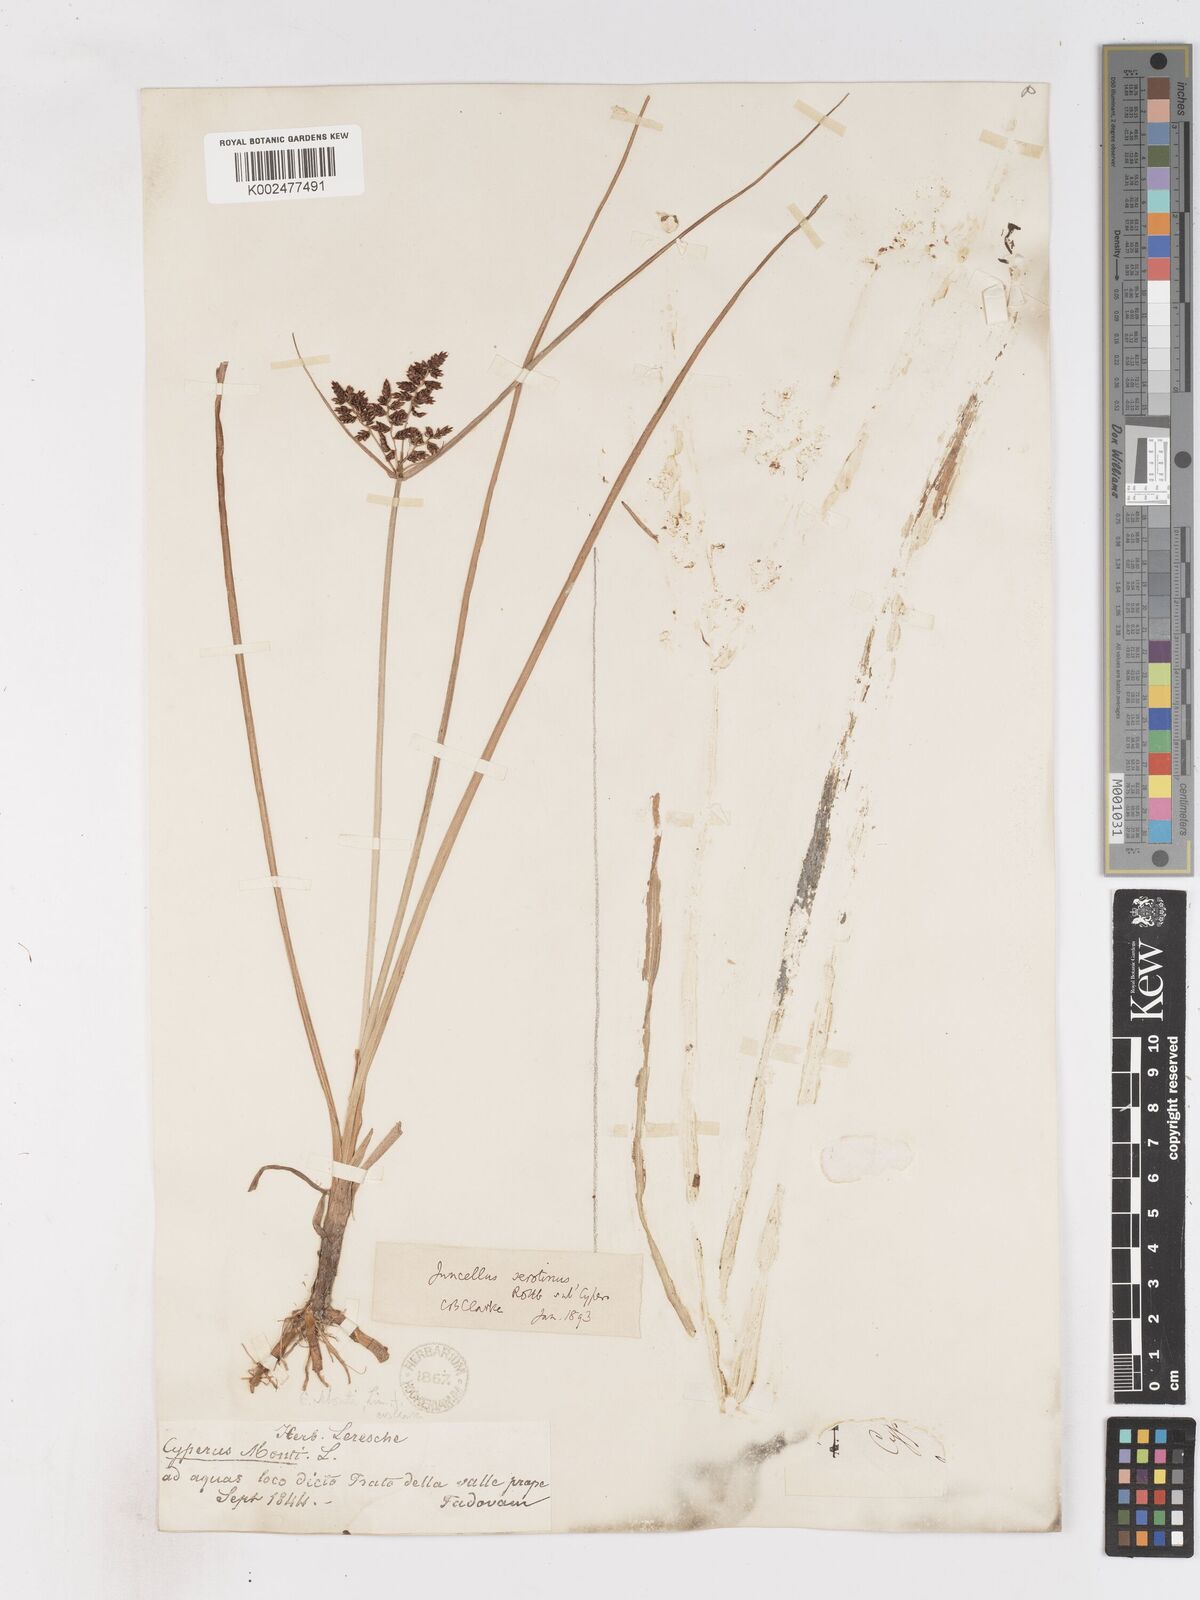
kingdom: Plantae
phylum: Tracheophyta
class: Liliopsida
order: Poales
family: Cyperaceae
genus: Cyperus
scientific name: Cyperus serotinus
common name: Tidalmarsh flatsedge
